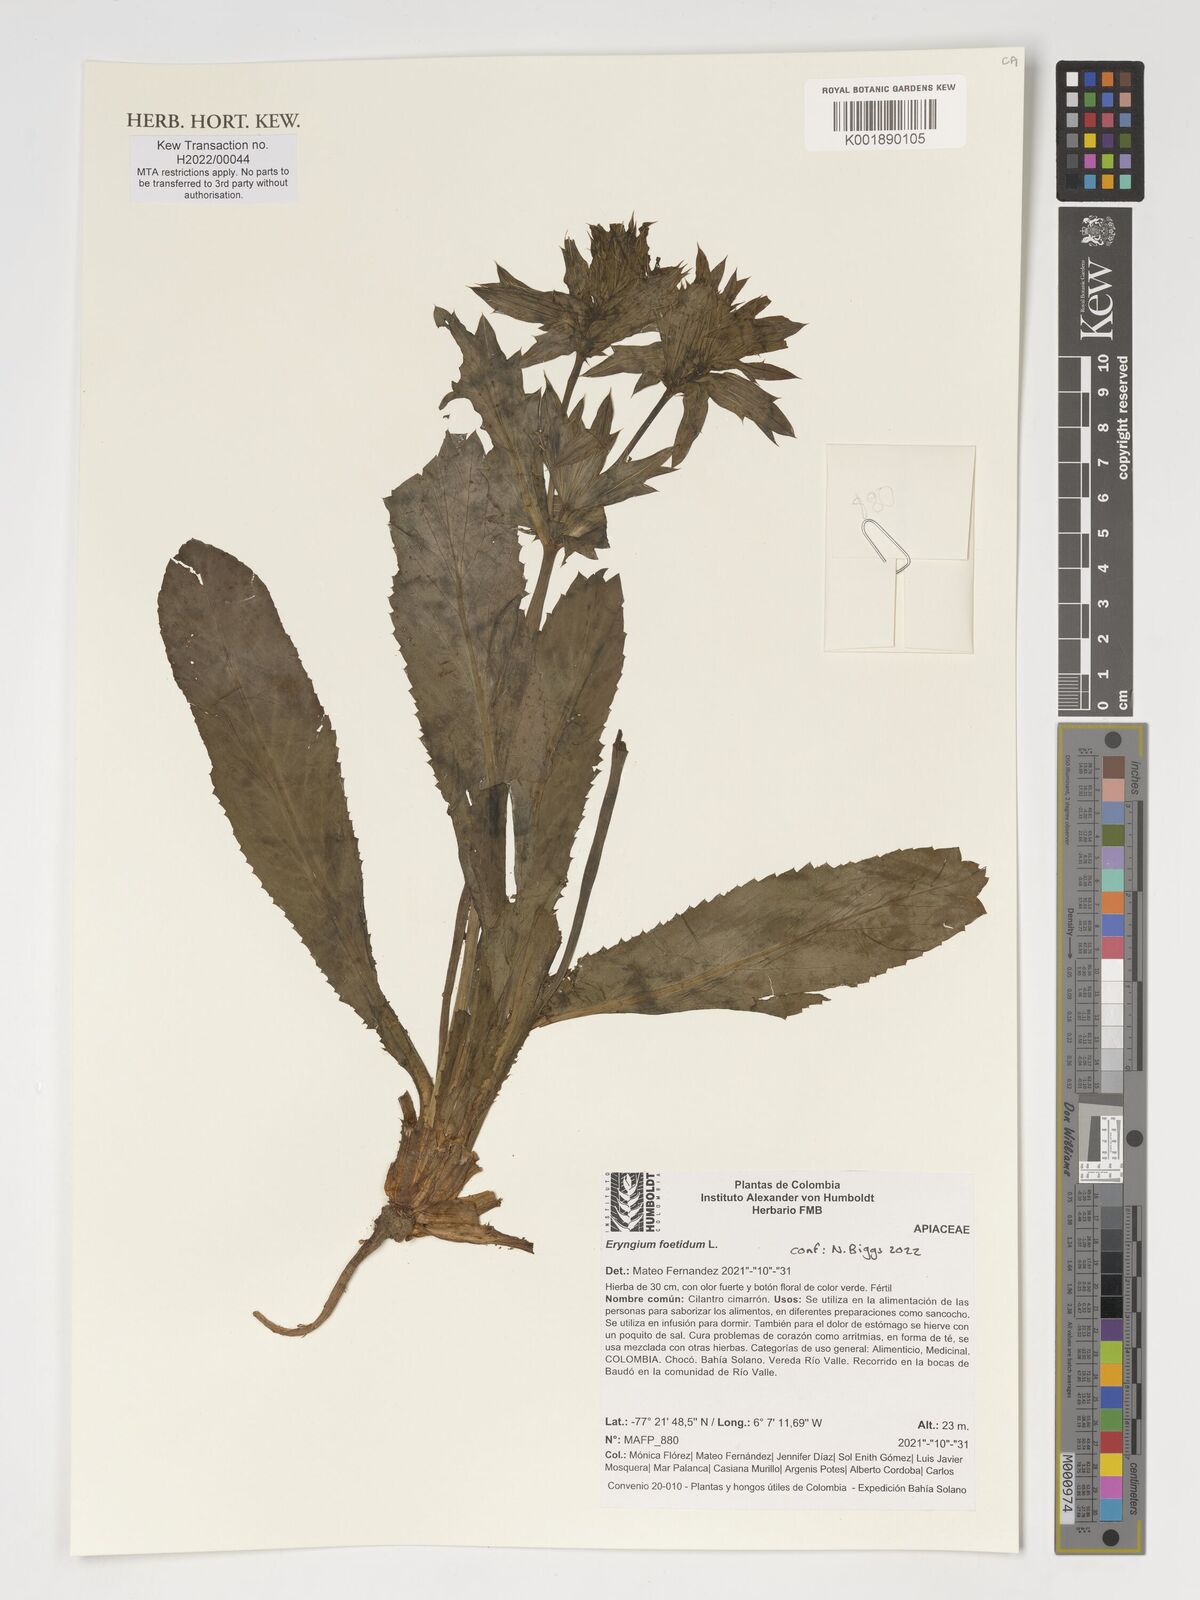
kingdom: Plantae
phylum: Tracheophyta
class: Magnoliopsida
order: Apiales
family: Apiaceae
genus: Eryngium
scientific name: Eryngium foetidum
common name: Fitweed
